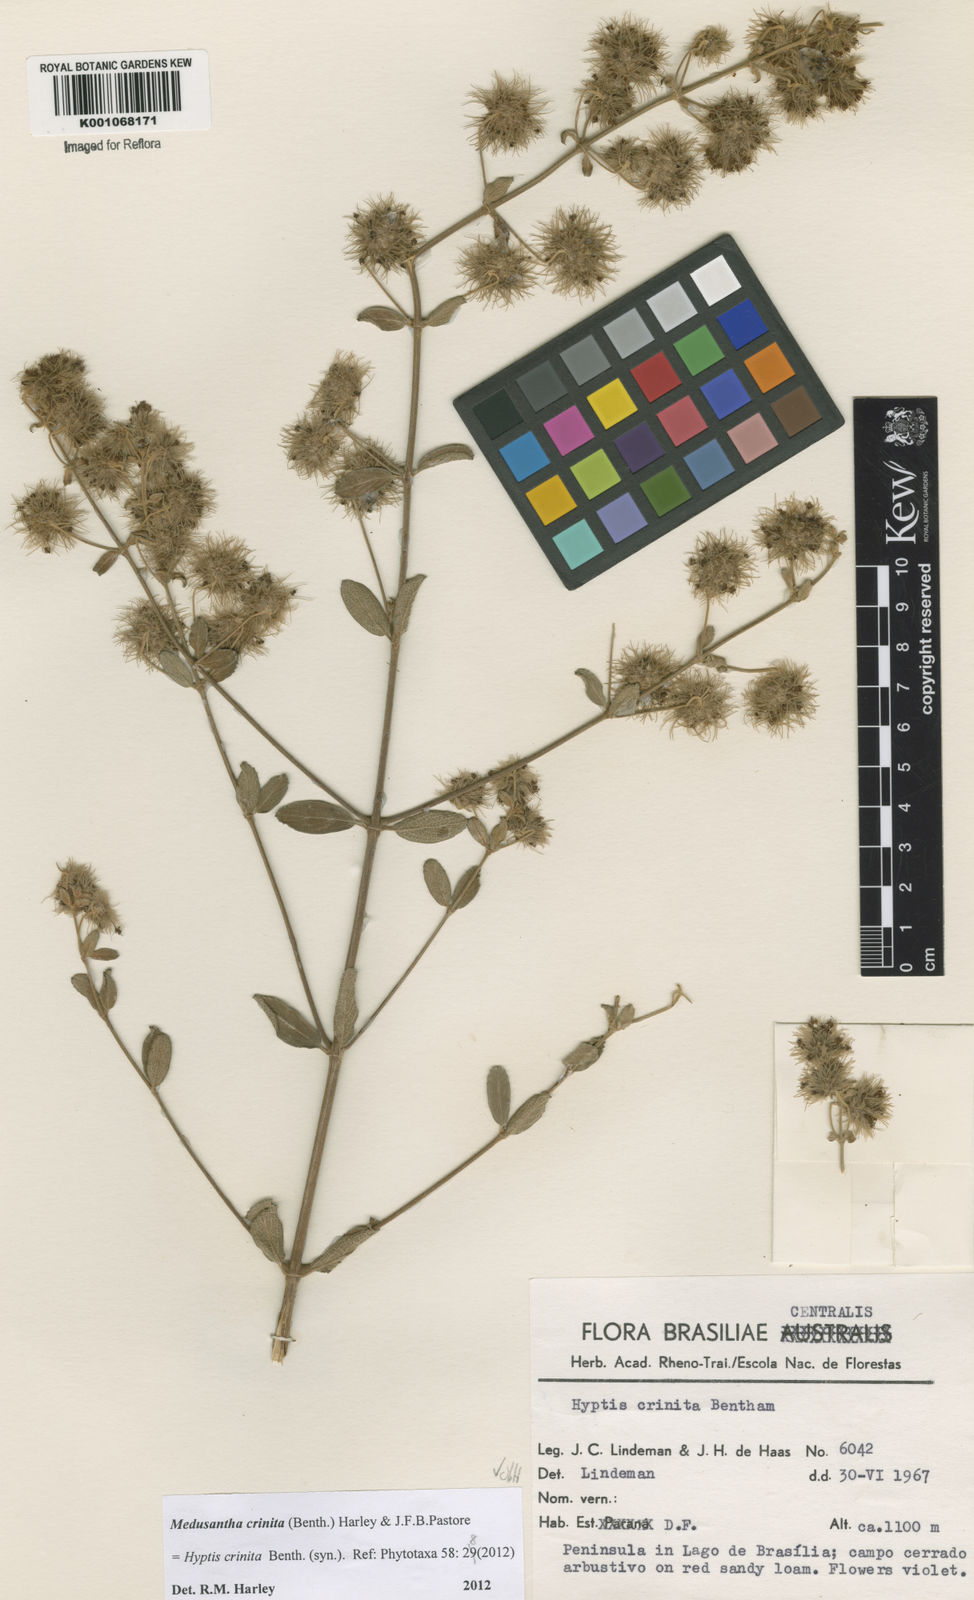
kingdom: Plantae
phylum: Tracheophyta
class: Magnoliopsida
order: Lamiales
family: Lamiaceae
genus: Medusantha
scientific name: Medusantha crinita
